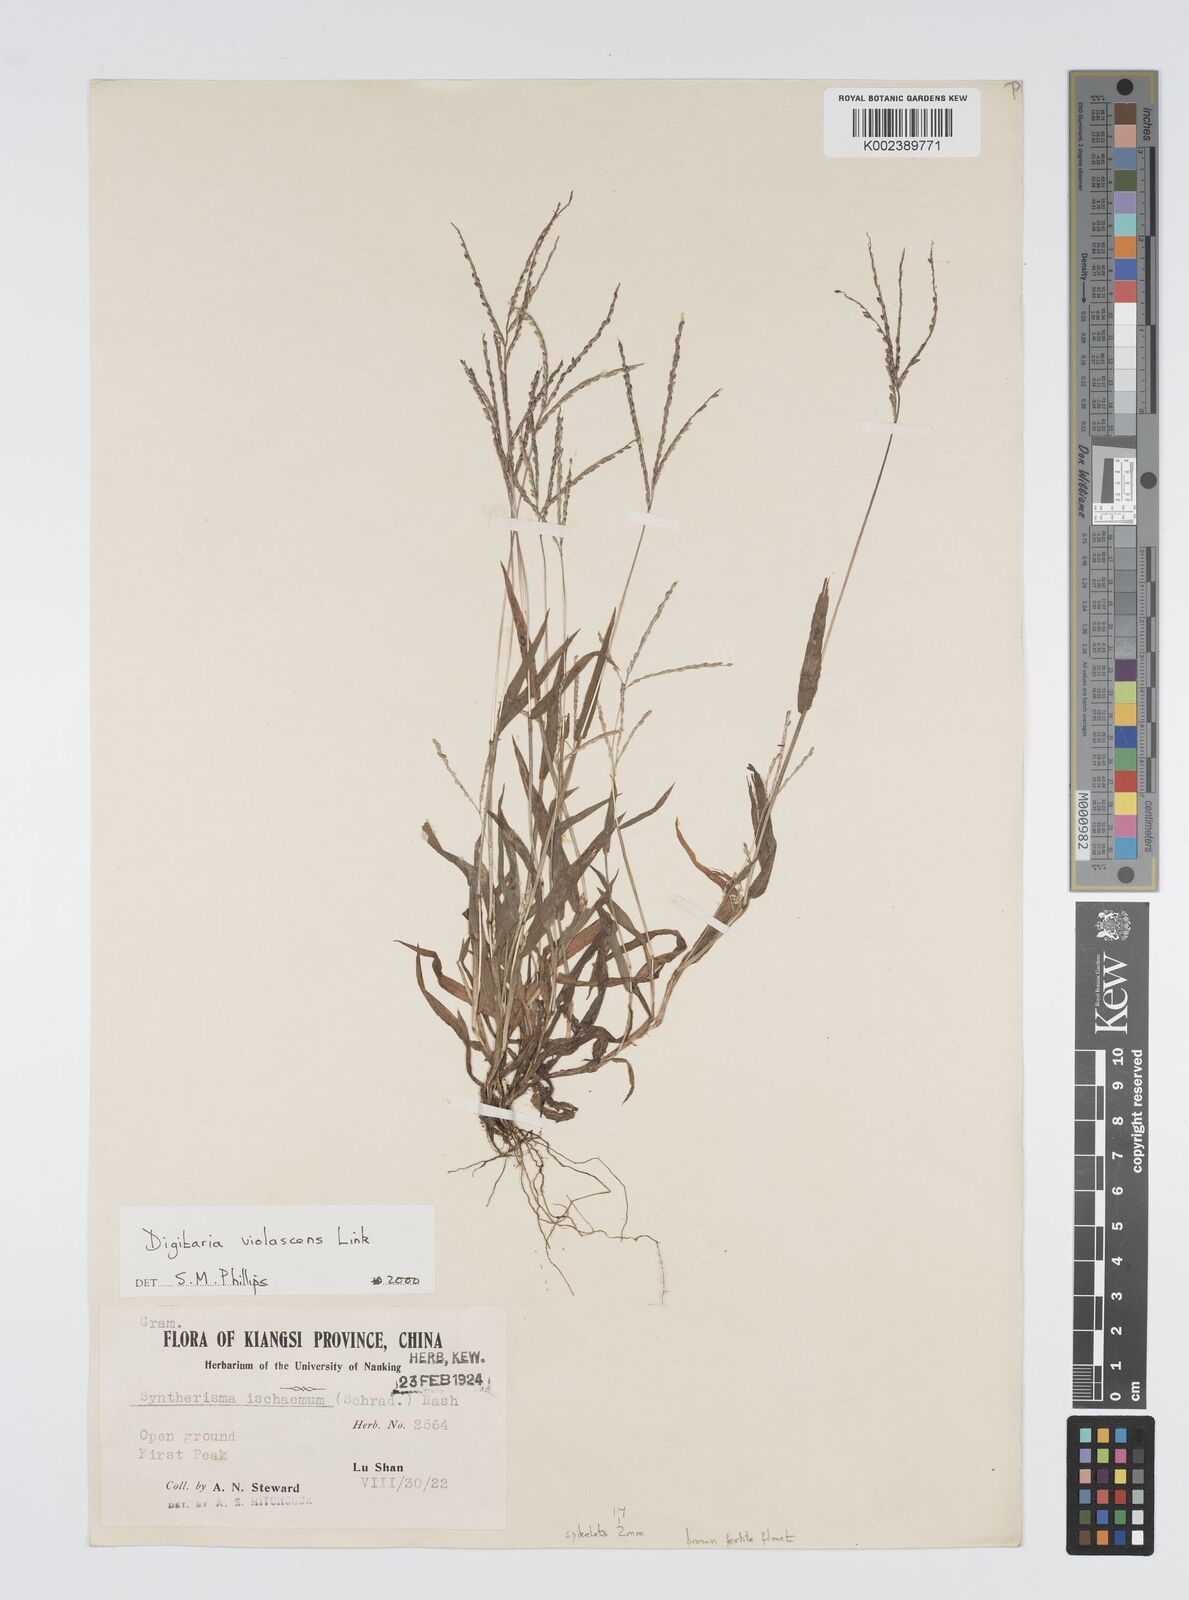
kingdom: Plantae
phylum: Tracheophyta
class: Liliopsida
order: Poales
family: Poaceae
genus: Digitaria
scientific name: Digitaria violascens
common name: Violet crabgrass
